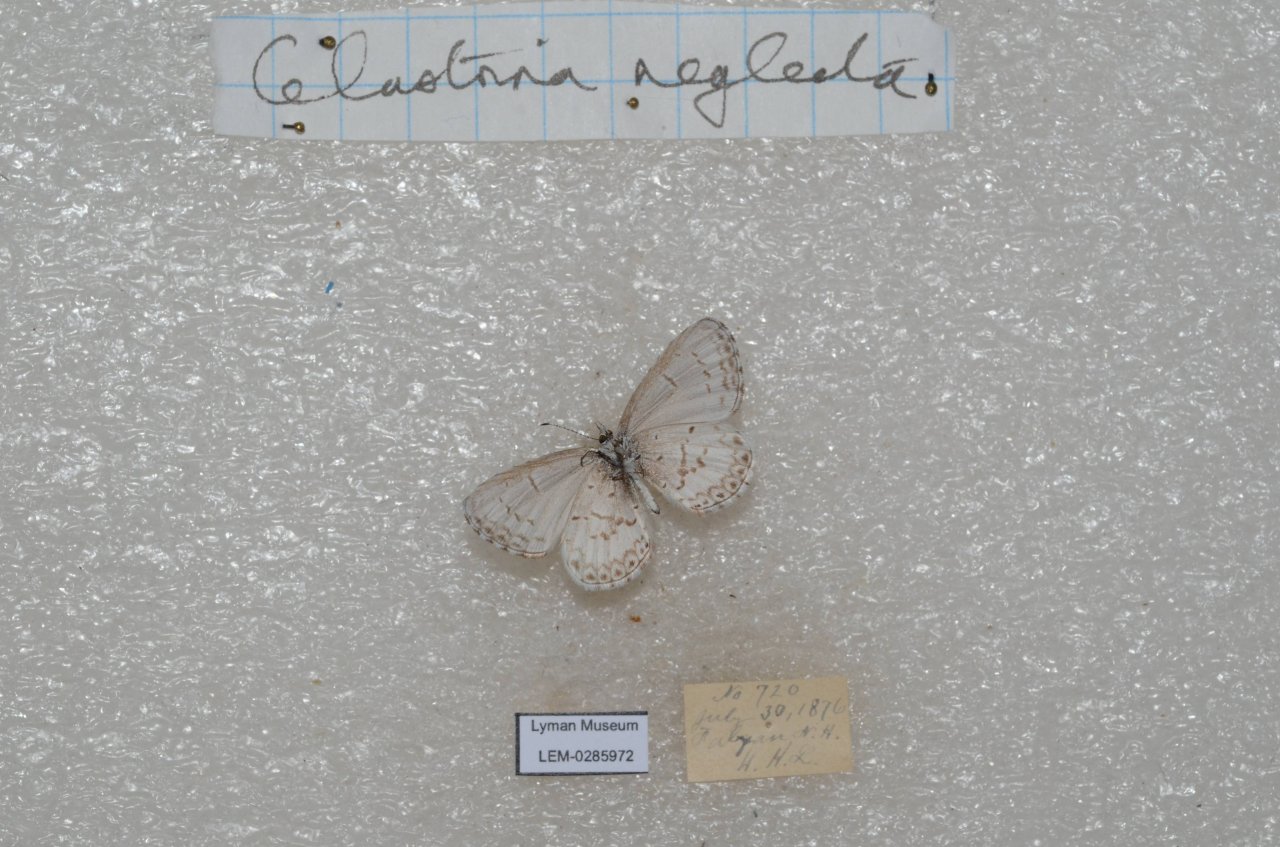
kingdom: Animalia
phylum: Arthropoda
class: Insecta
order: Lepidoptera
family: Lycaenidae
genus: Cyaniris
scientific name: Cyaniris neglecta
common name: Summer Azure
